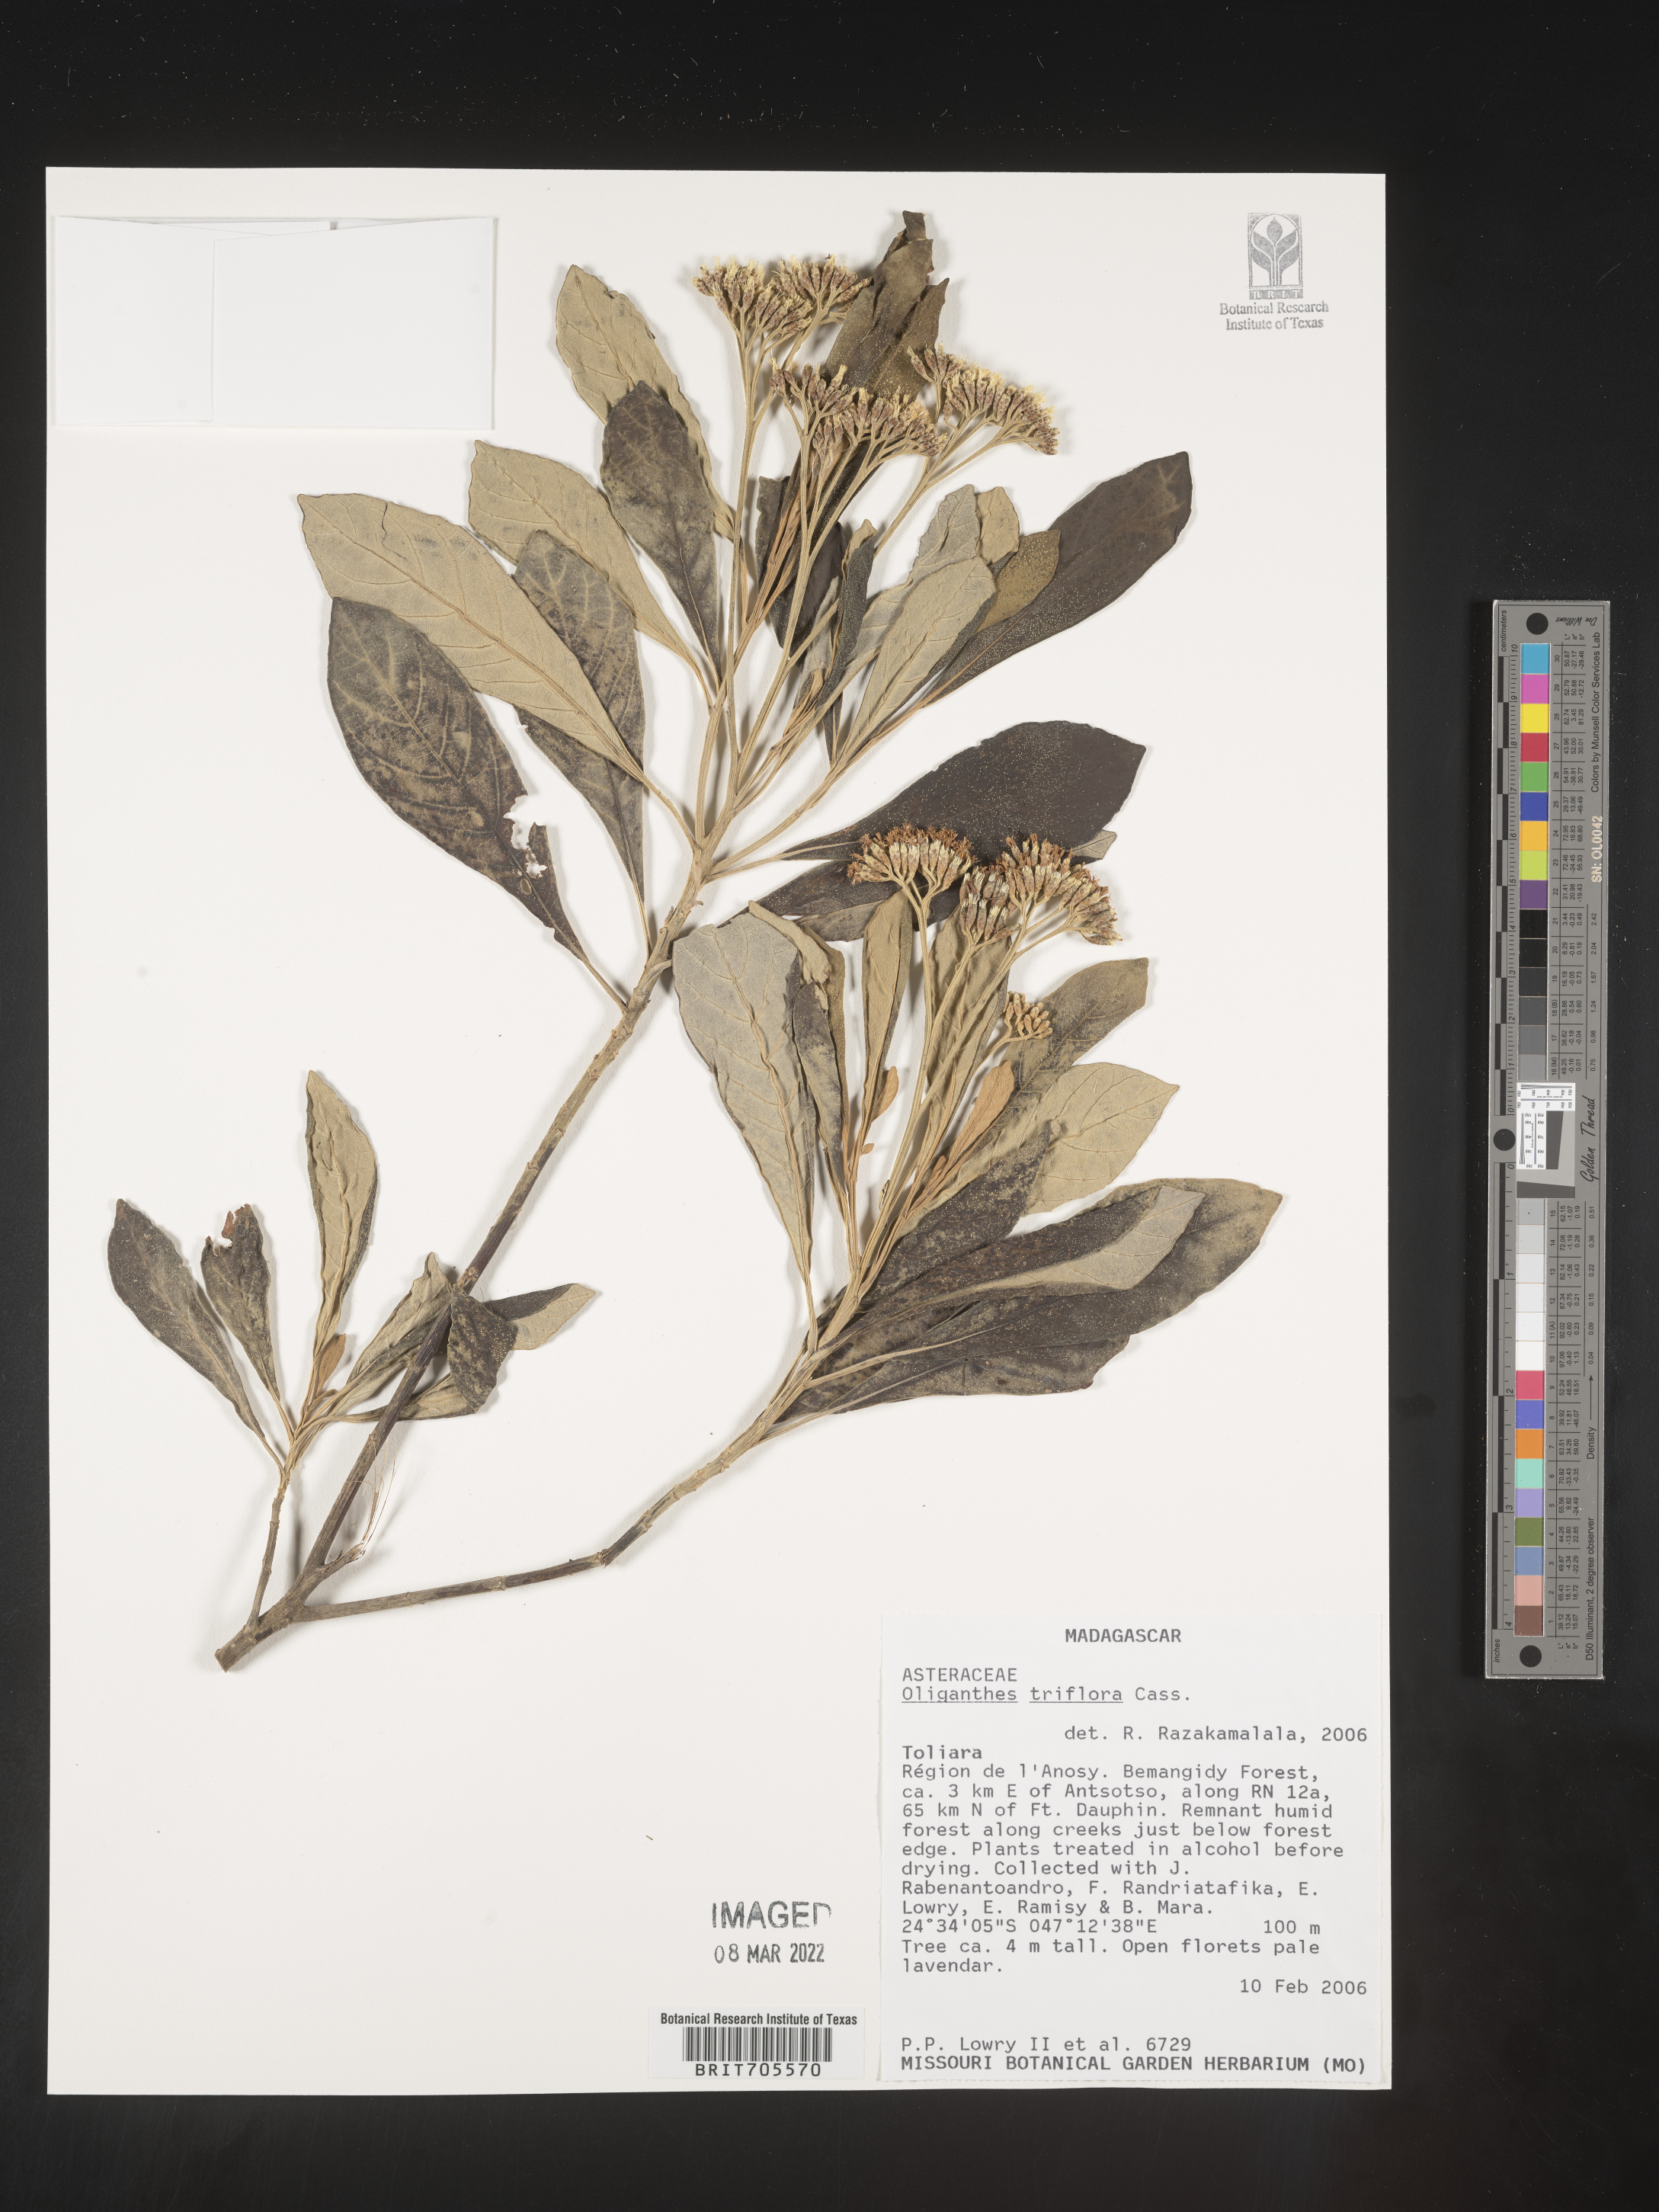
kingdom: Plantae
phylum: Tracheophyta
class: Magnoliopsida
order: Asterales
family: Asteraceae
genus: Piptocoma
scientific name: Piptocoma vernonioides
